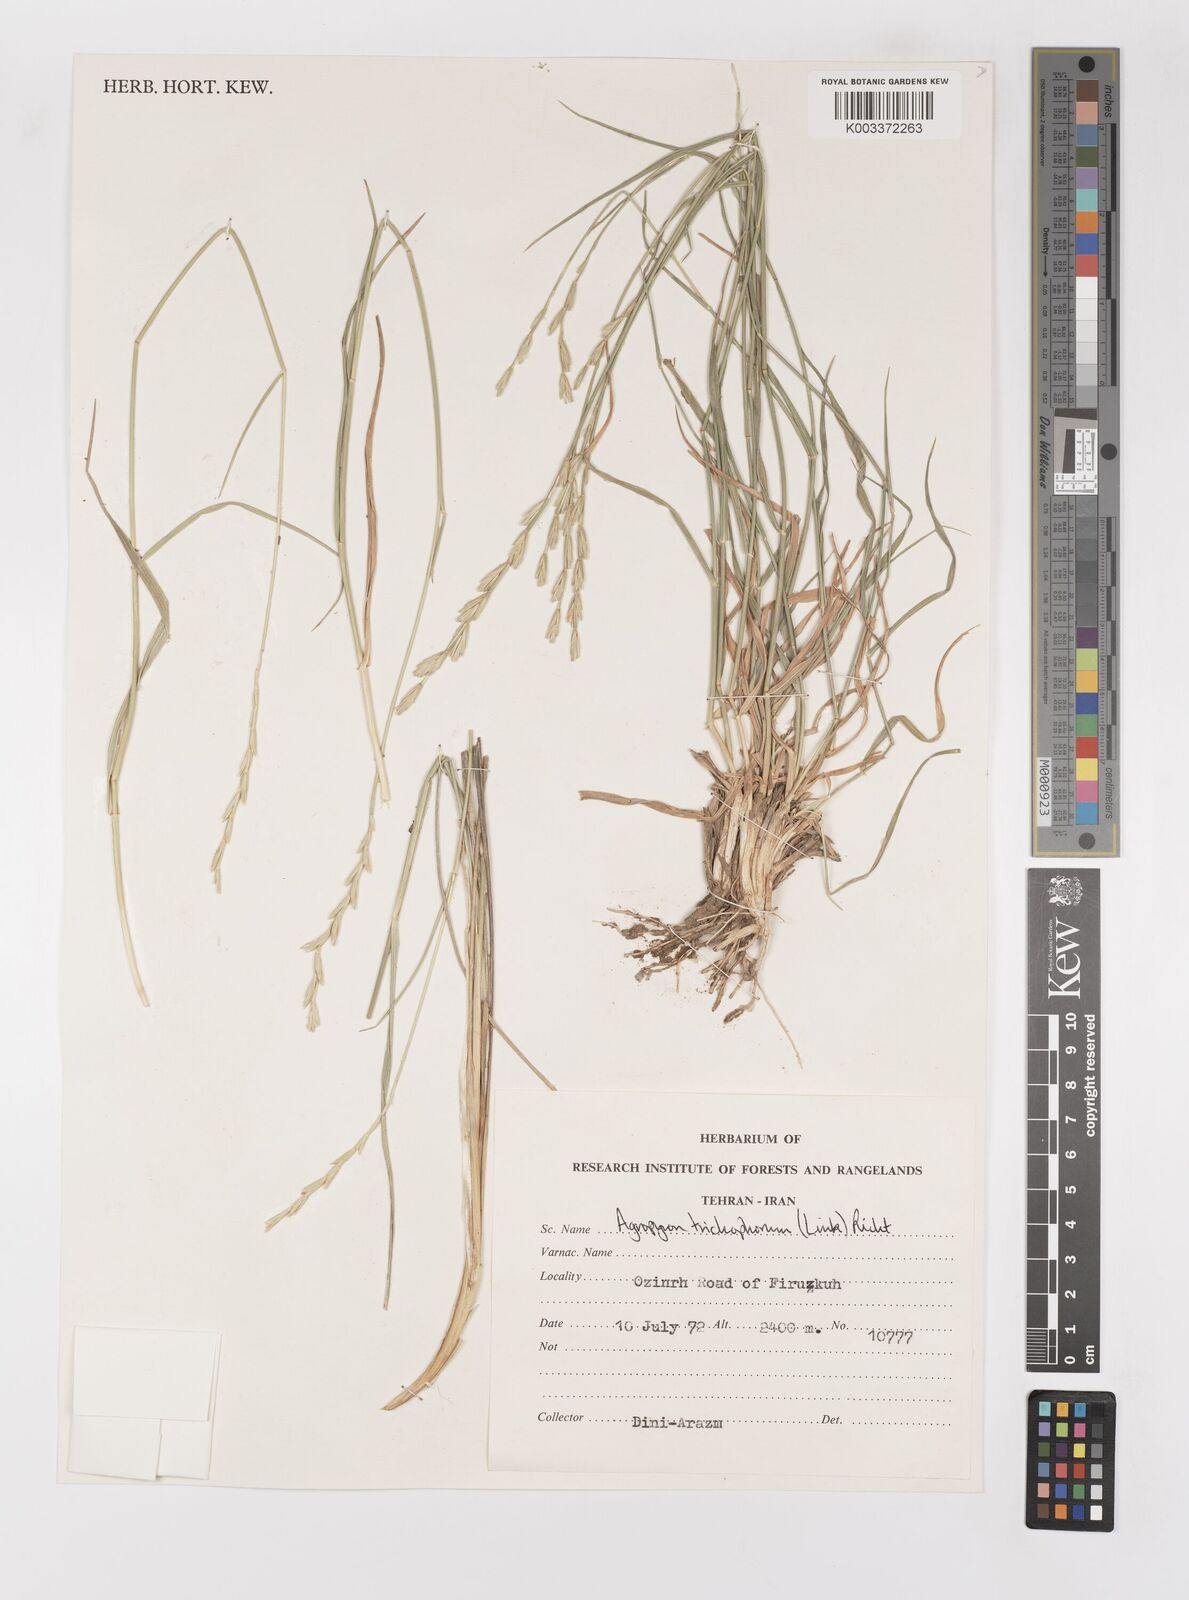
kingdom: Plantae
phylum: Tracheophyta
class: Liliopsida
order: Poales
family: Poaceae
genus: Thinopyrum
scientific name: Thinopyrum intermedium
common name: Intermediate wheatgrass
